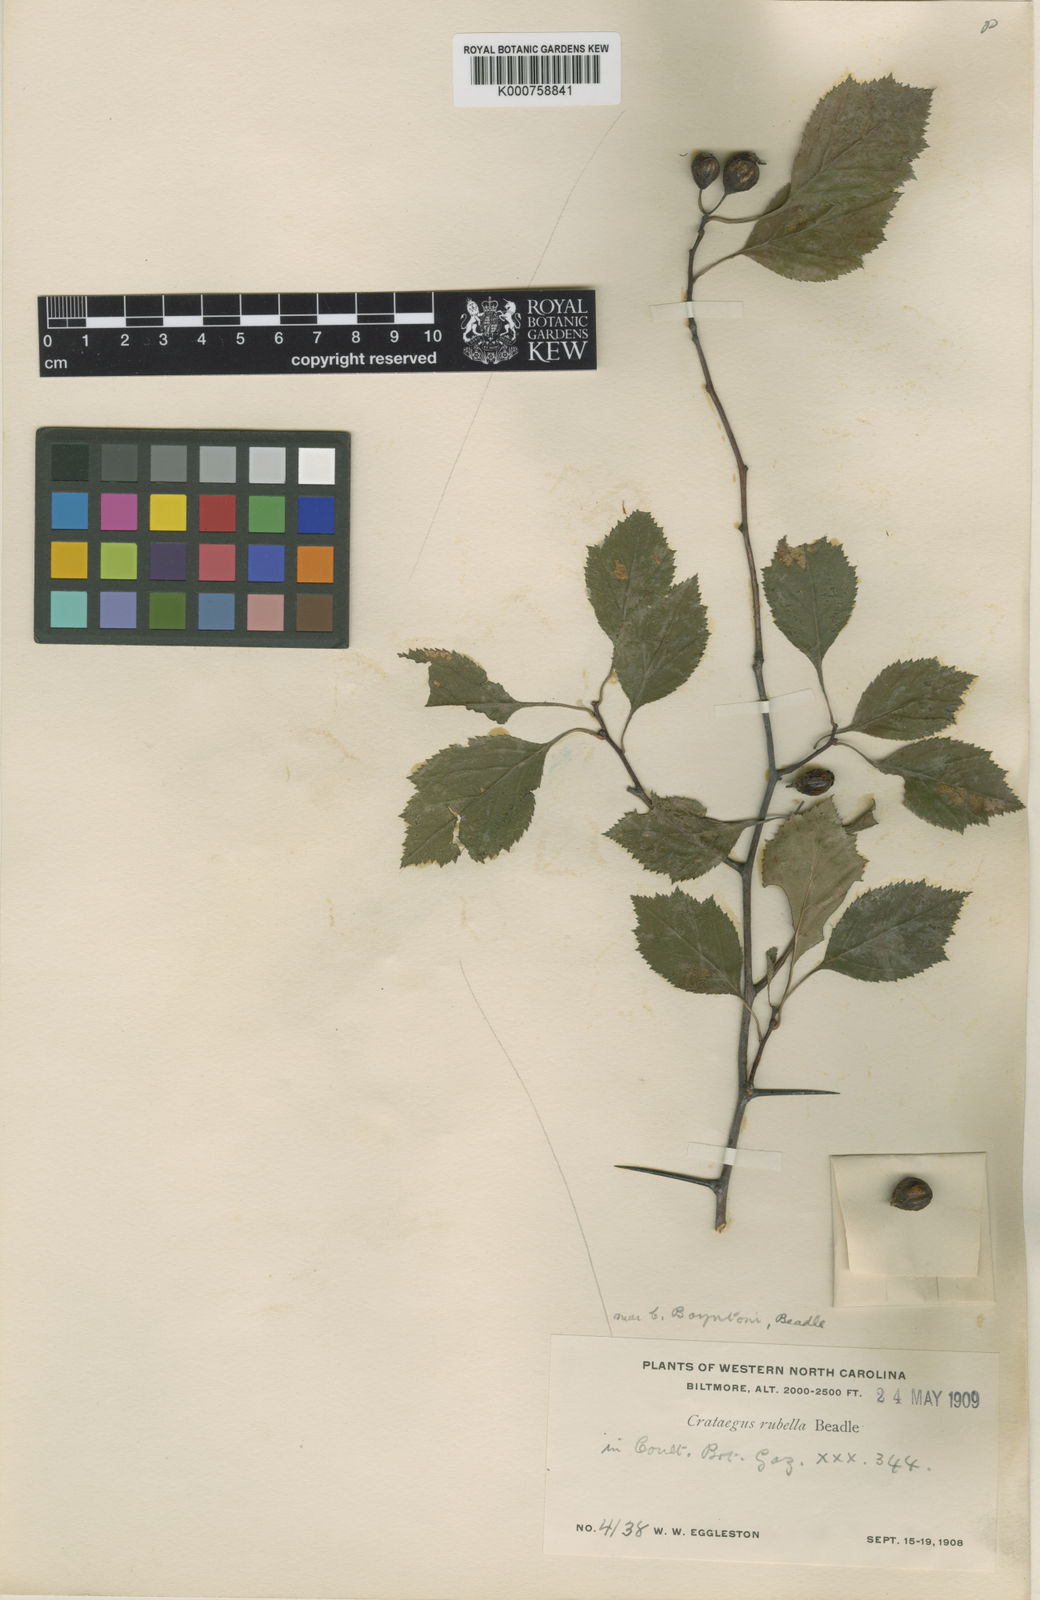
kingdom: Plantae
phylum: Tracheophyta
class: Magnoliopsida
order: Rosales
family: Rosaceae
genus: Crataegus
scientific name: Crataegus intricata
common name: Biltmore hawthorn
